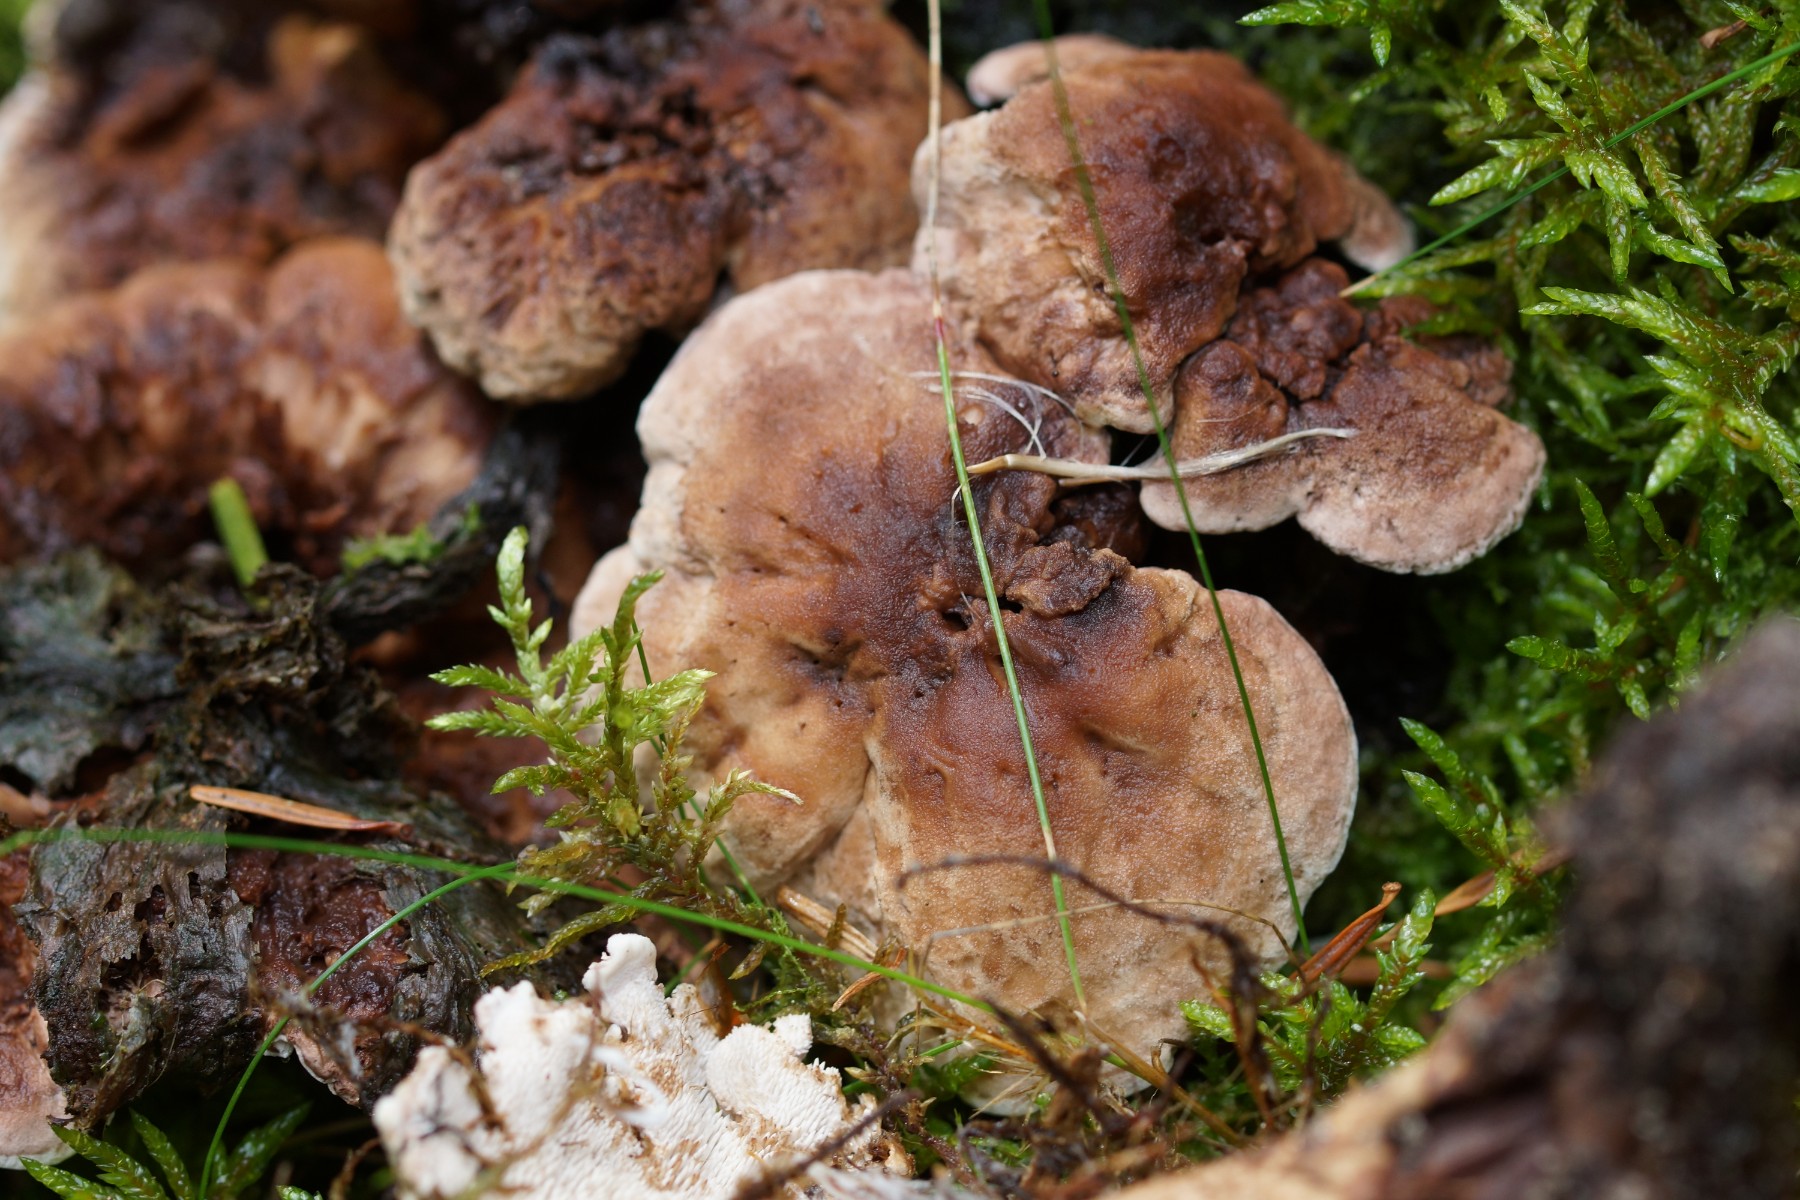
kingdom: Fungi
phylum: Basidiomycota
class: Agaricomycetes
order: Thelephorales
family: Thelephoraceae
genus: Phellodon
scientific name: Phellodon violascens
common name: violetbrun duftpigsvamp
